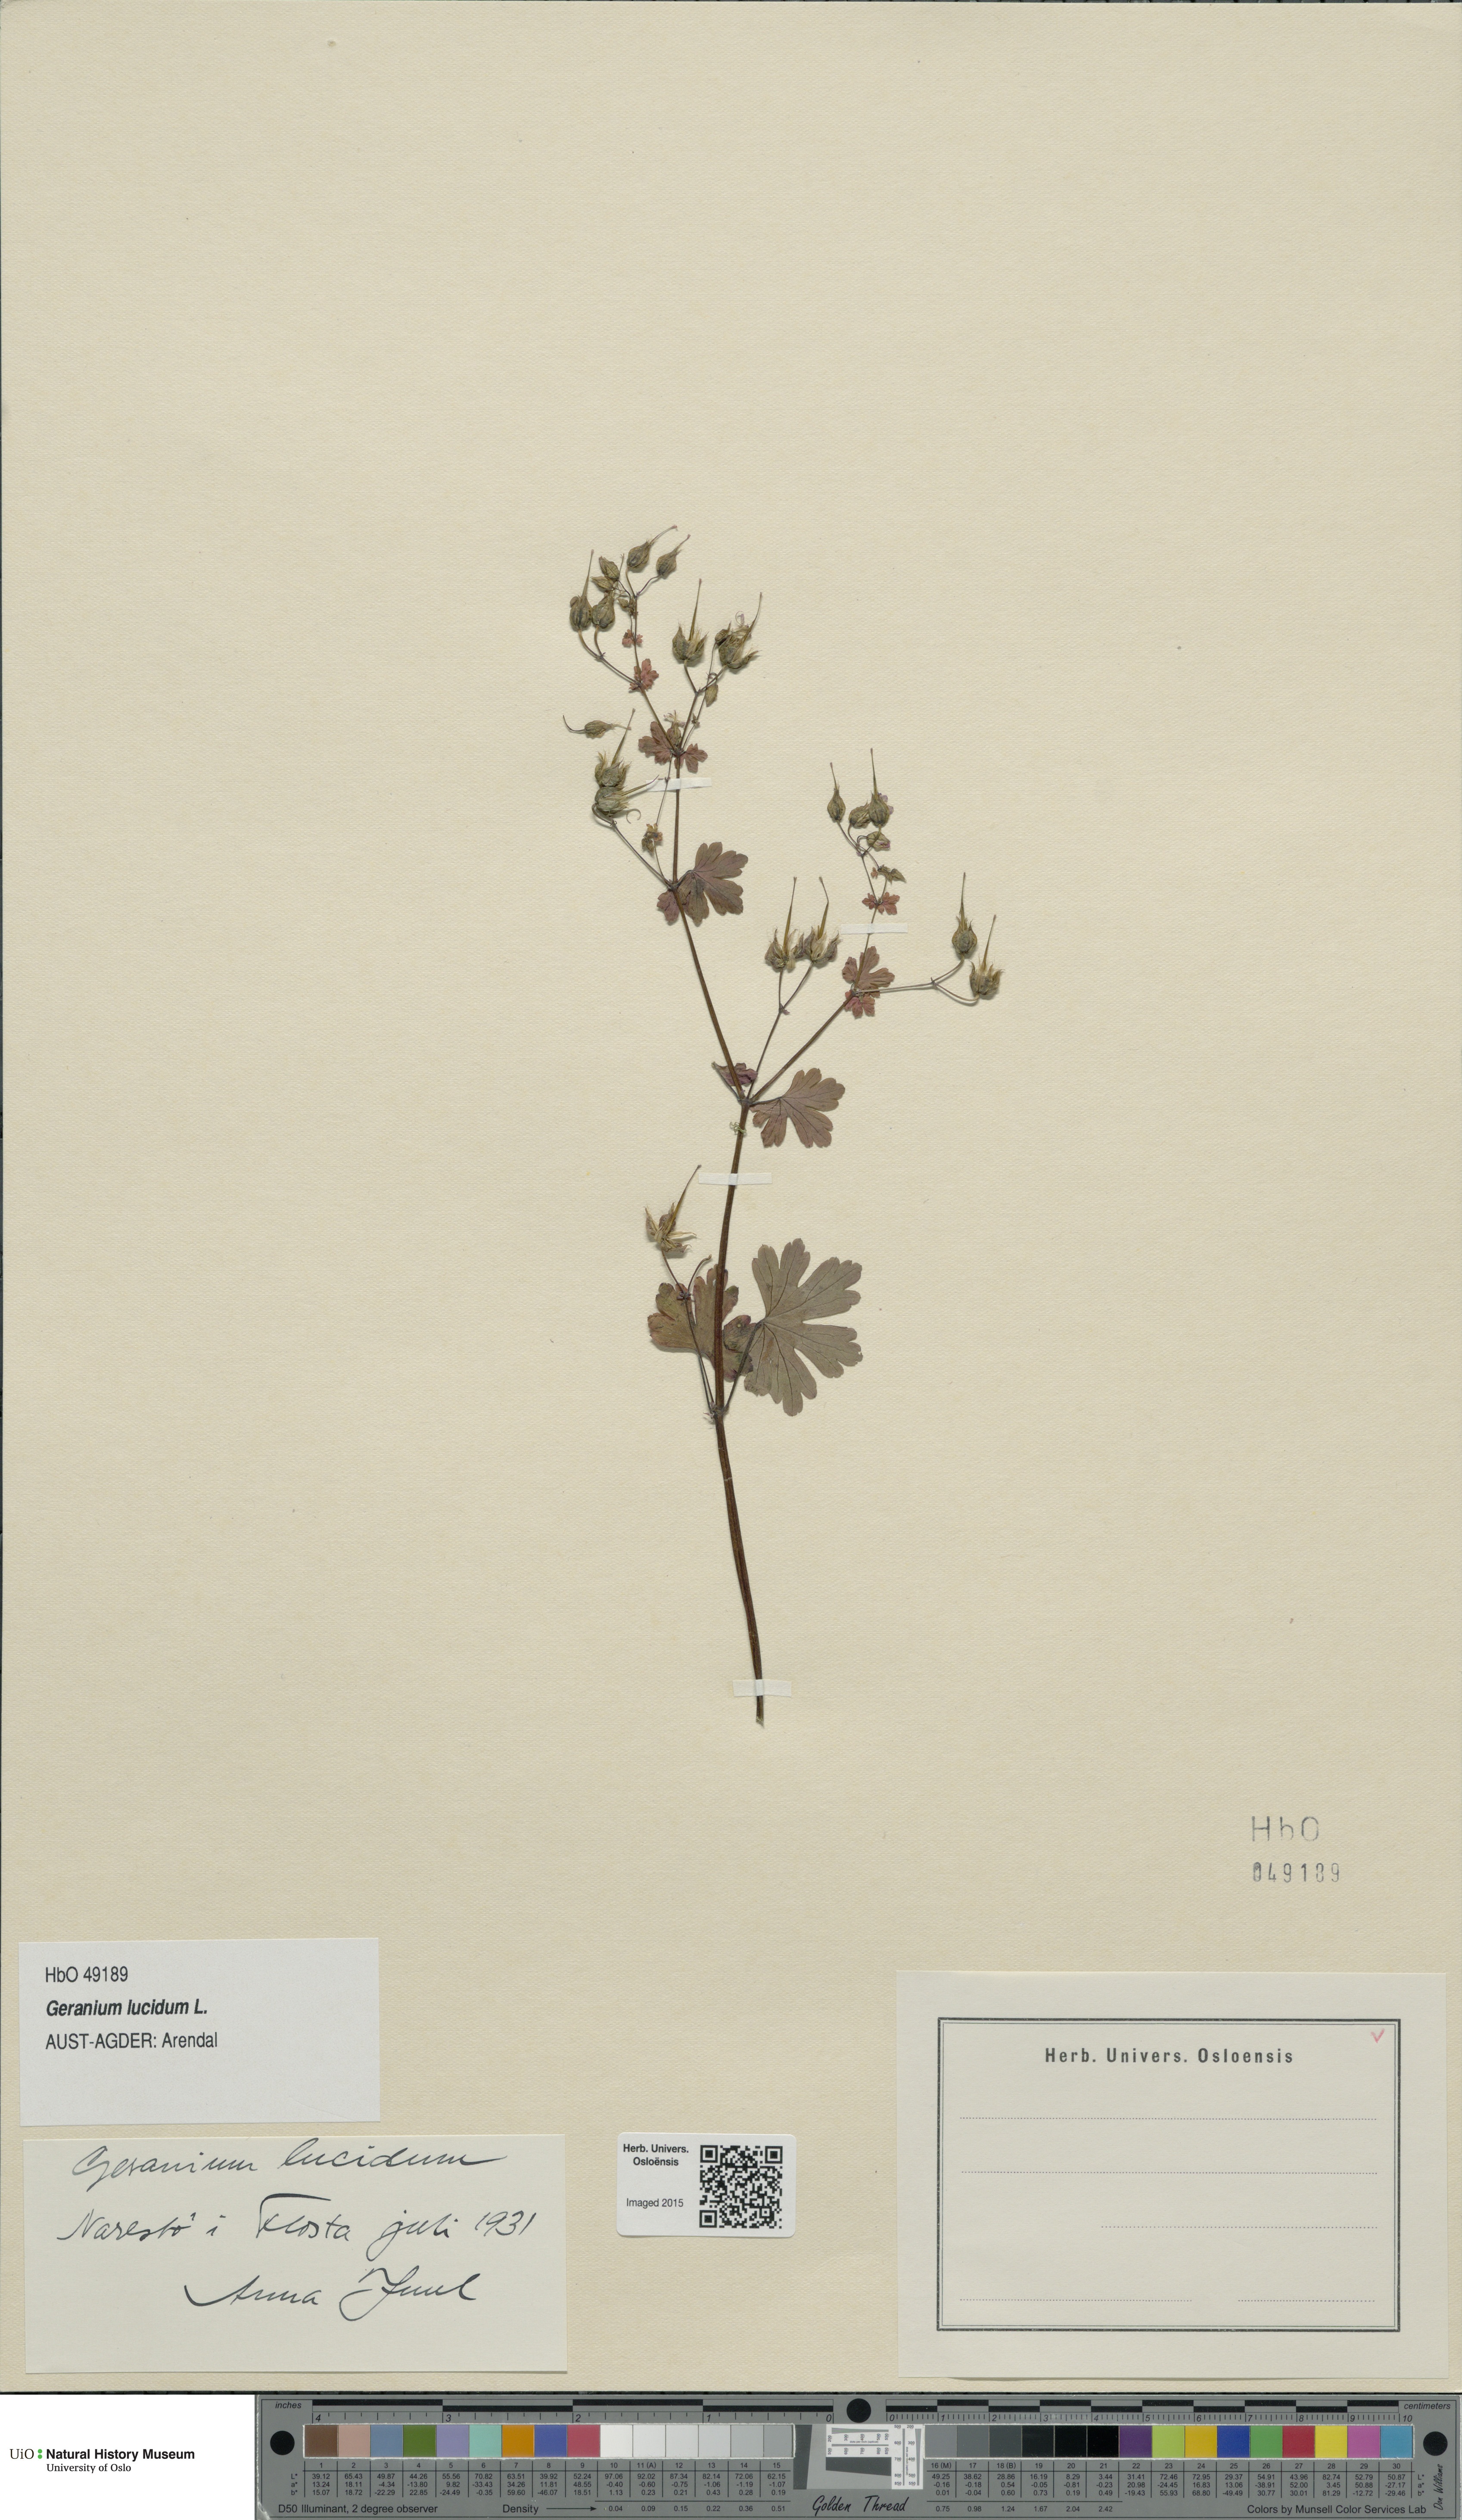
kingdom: Plantae
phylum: Tracheophyta
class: Magnoliopsida
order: Geraniales
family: Geraniaceae
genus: Geranium
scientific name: Geranium lucidum
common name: Shining crane's-bill
